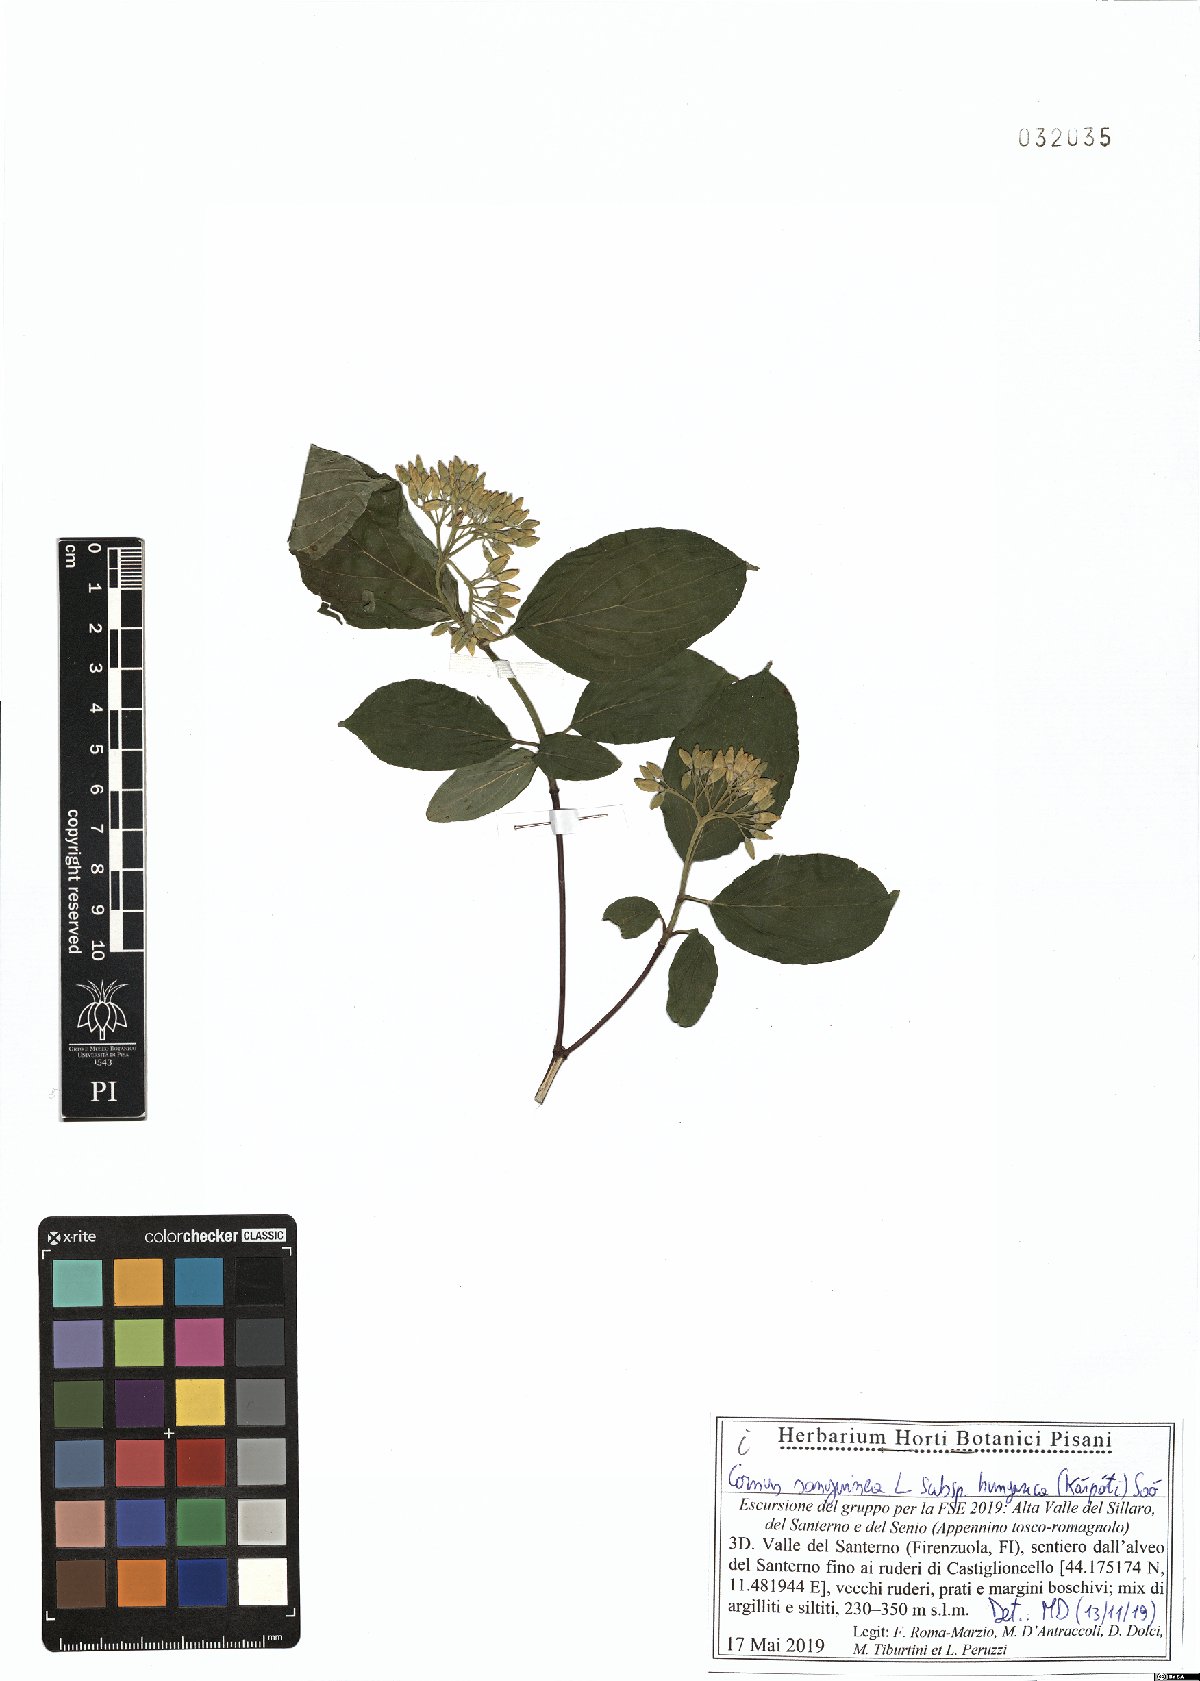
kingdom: Plantae
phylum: Tracheophyta
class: Magnoliopsida
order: Cornales
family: Cornaceae
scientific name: Cornaceae
